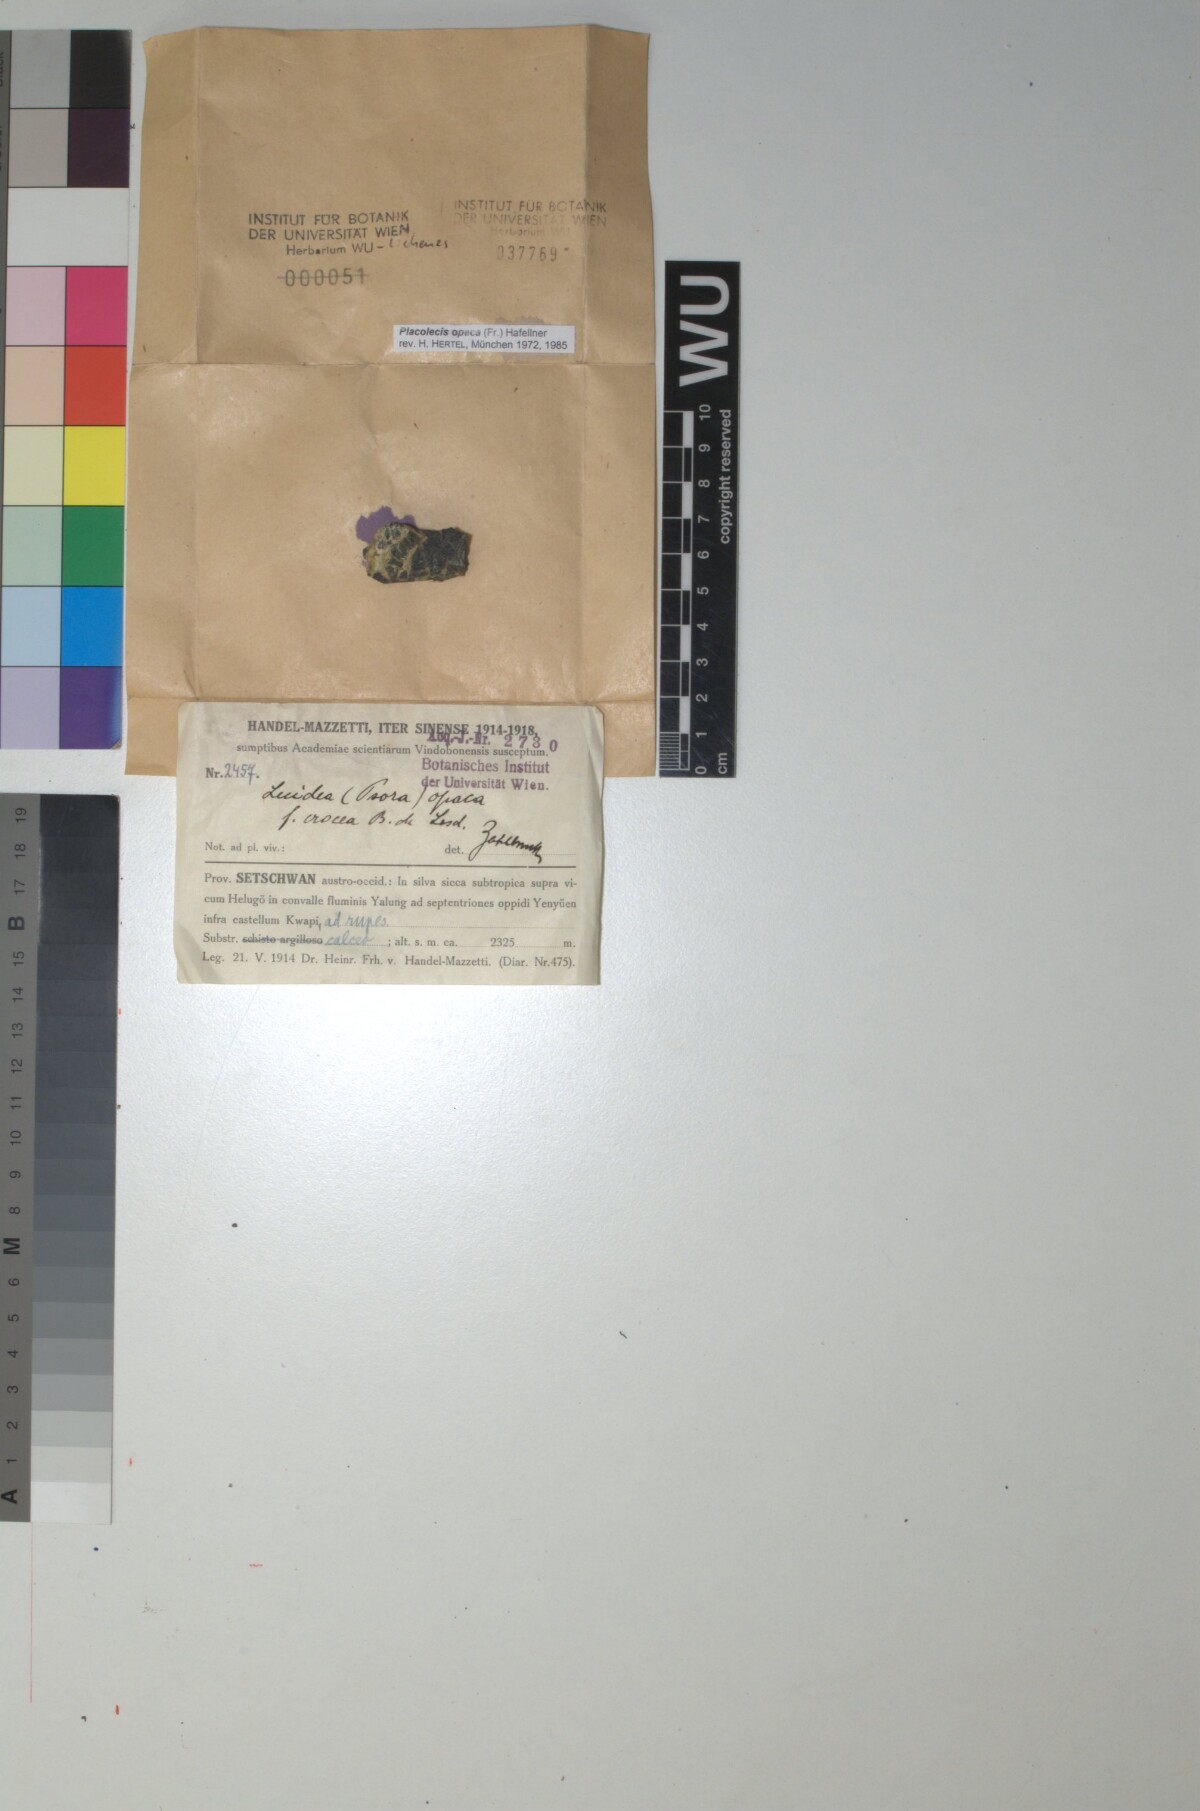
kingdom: Fungi
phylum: Ascomycota
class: Lecanoromycetes
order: Lecanorales
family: Catillariaceae
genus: Placolecis
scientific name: Placolecis opaca
